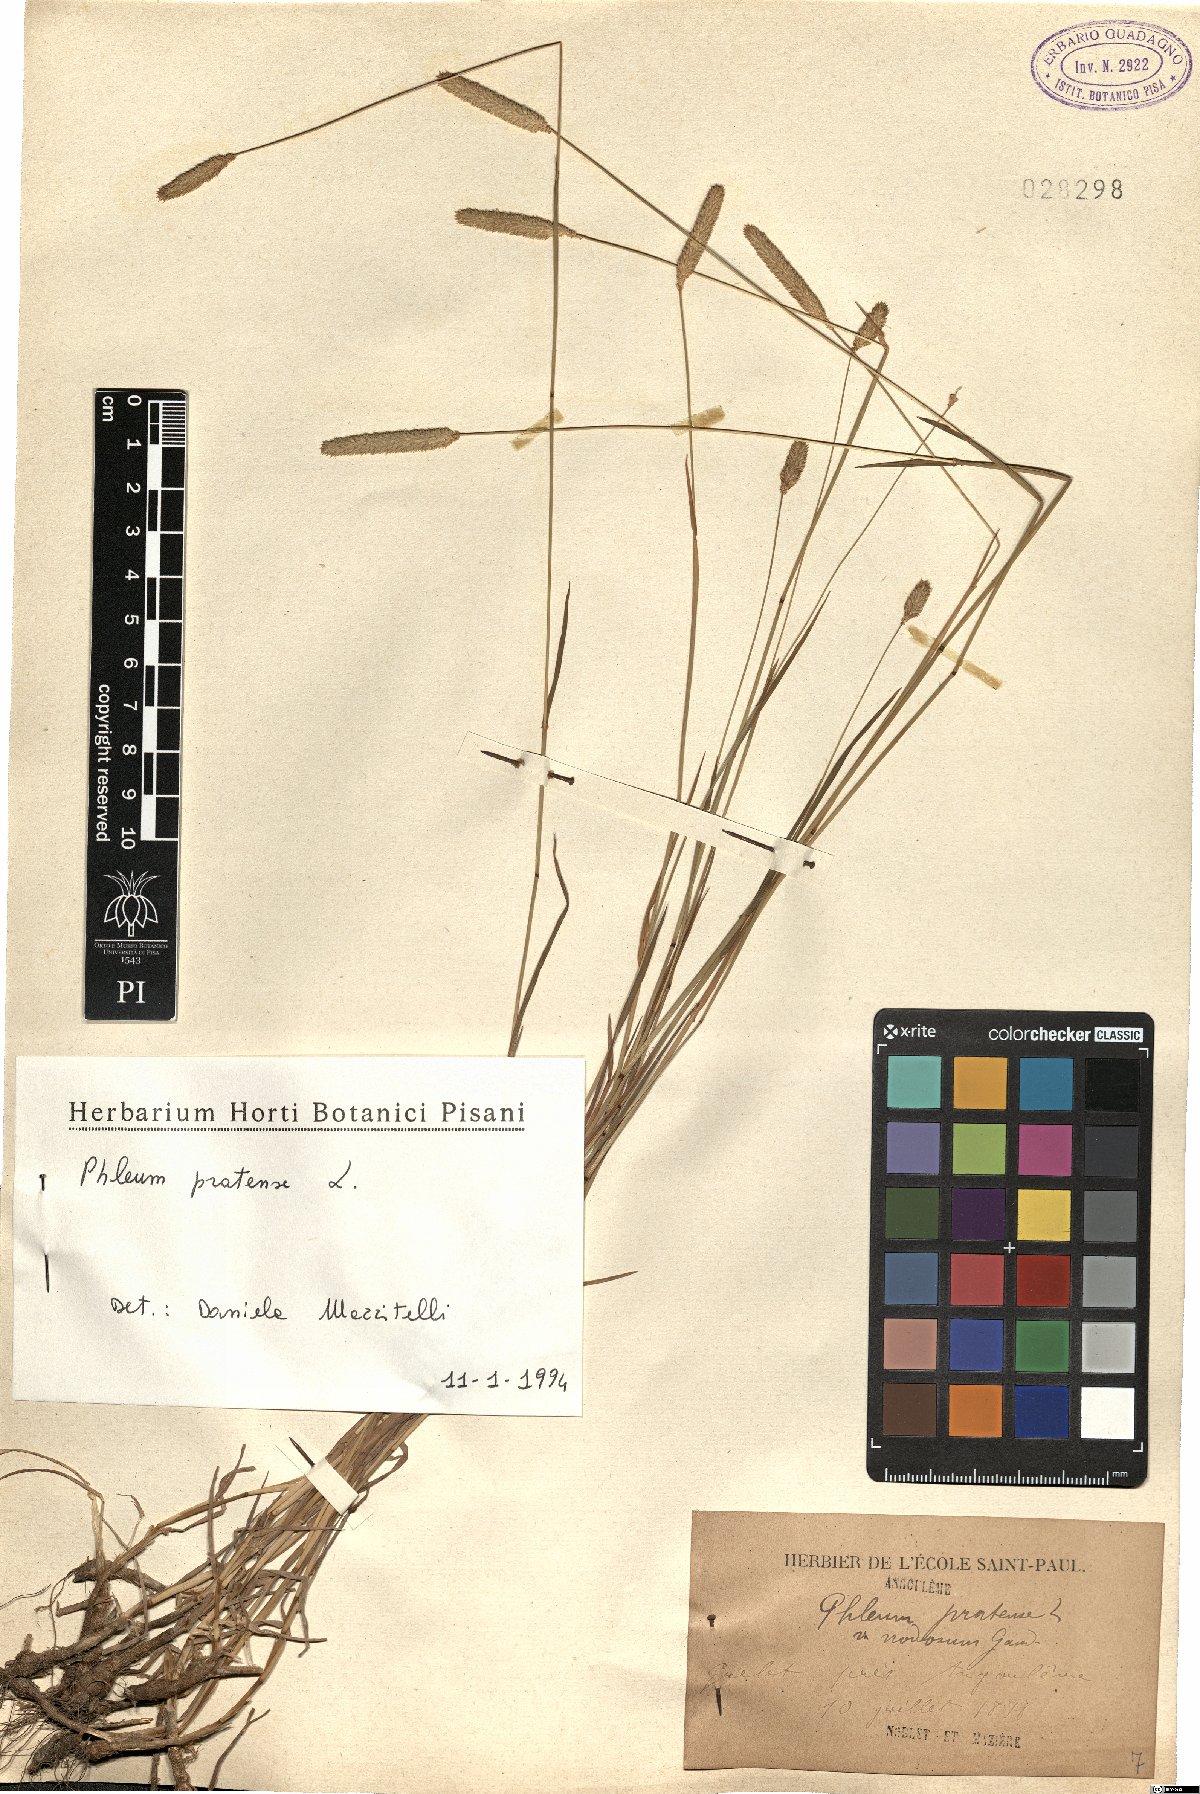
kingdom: Plantae
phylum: Tracheophyta
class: Liliopsida
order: Poales
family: Poaceae
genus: Phleum
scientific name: Phleum pratense
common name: Timothy grass
